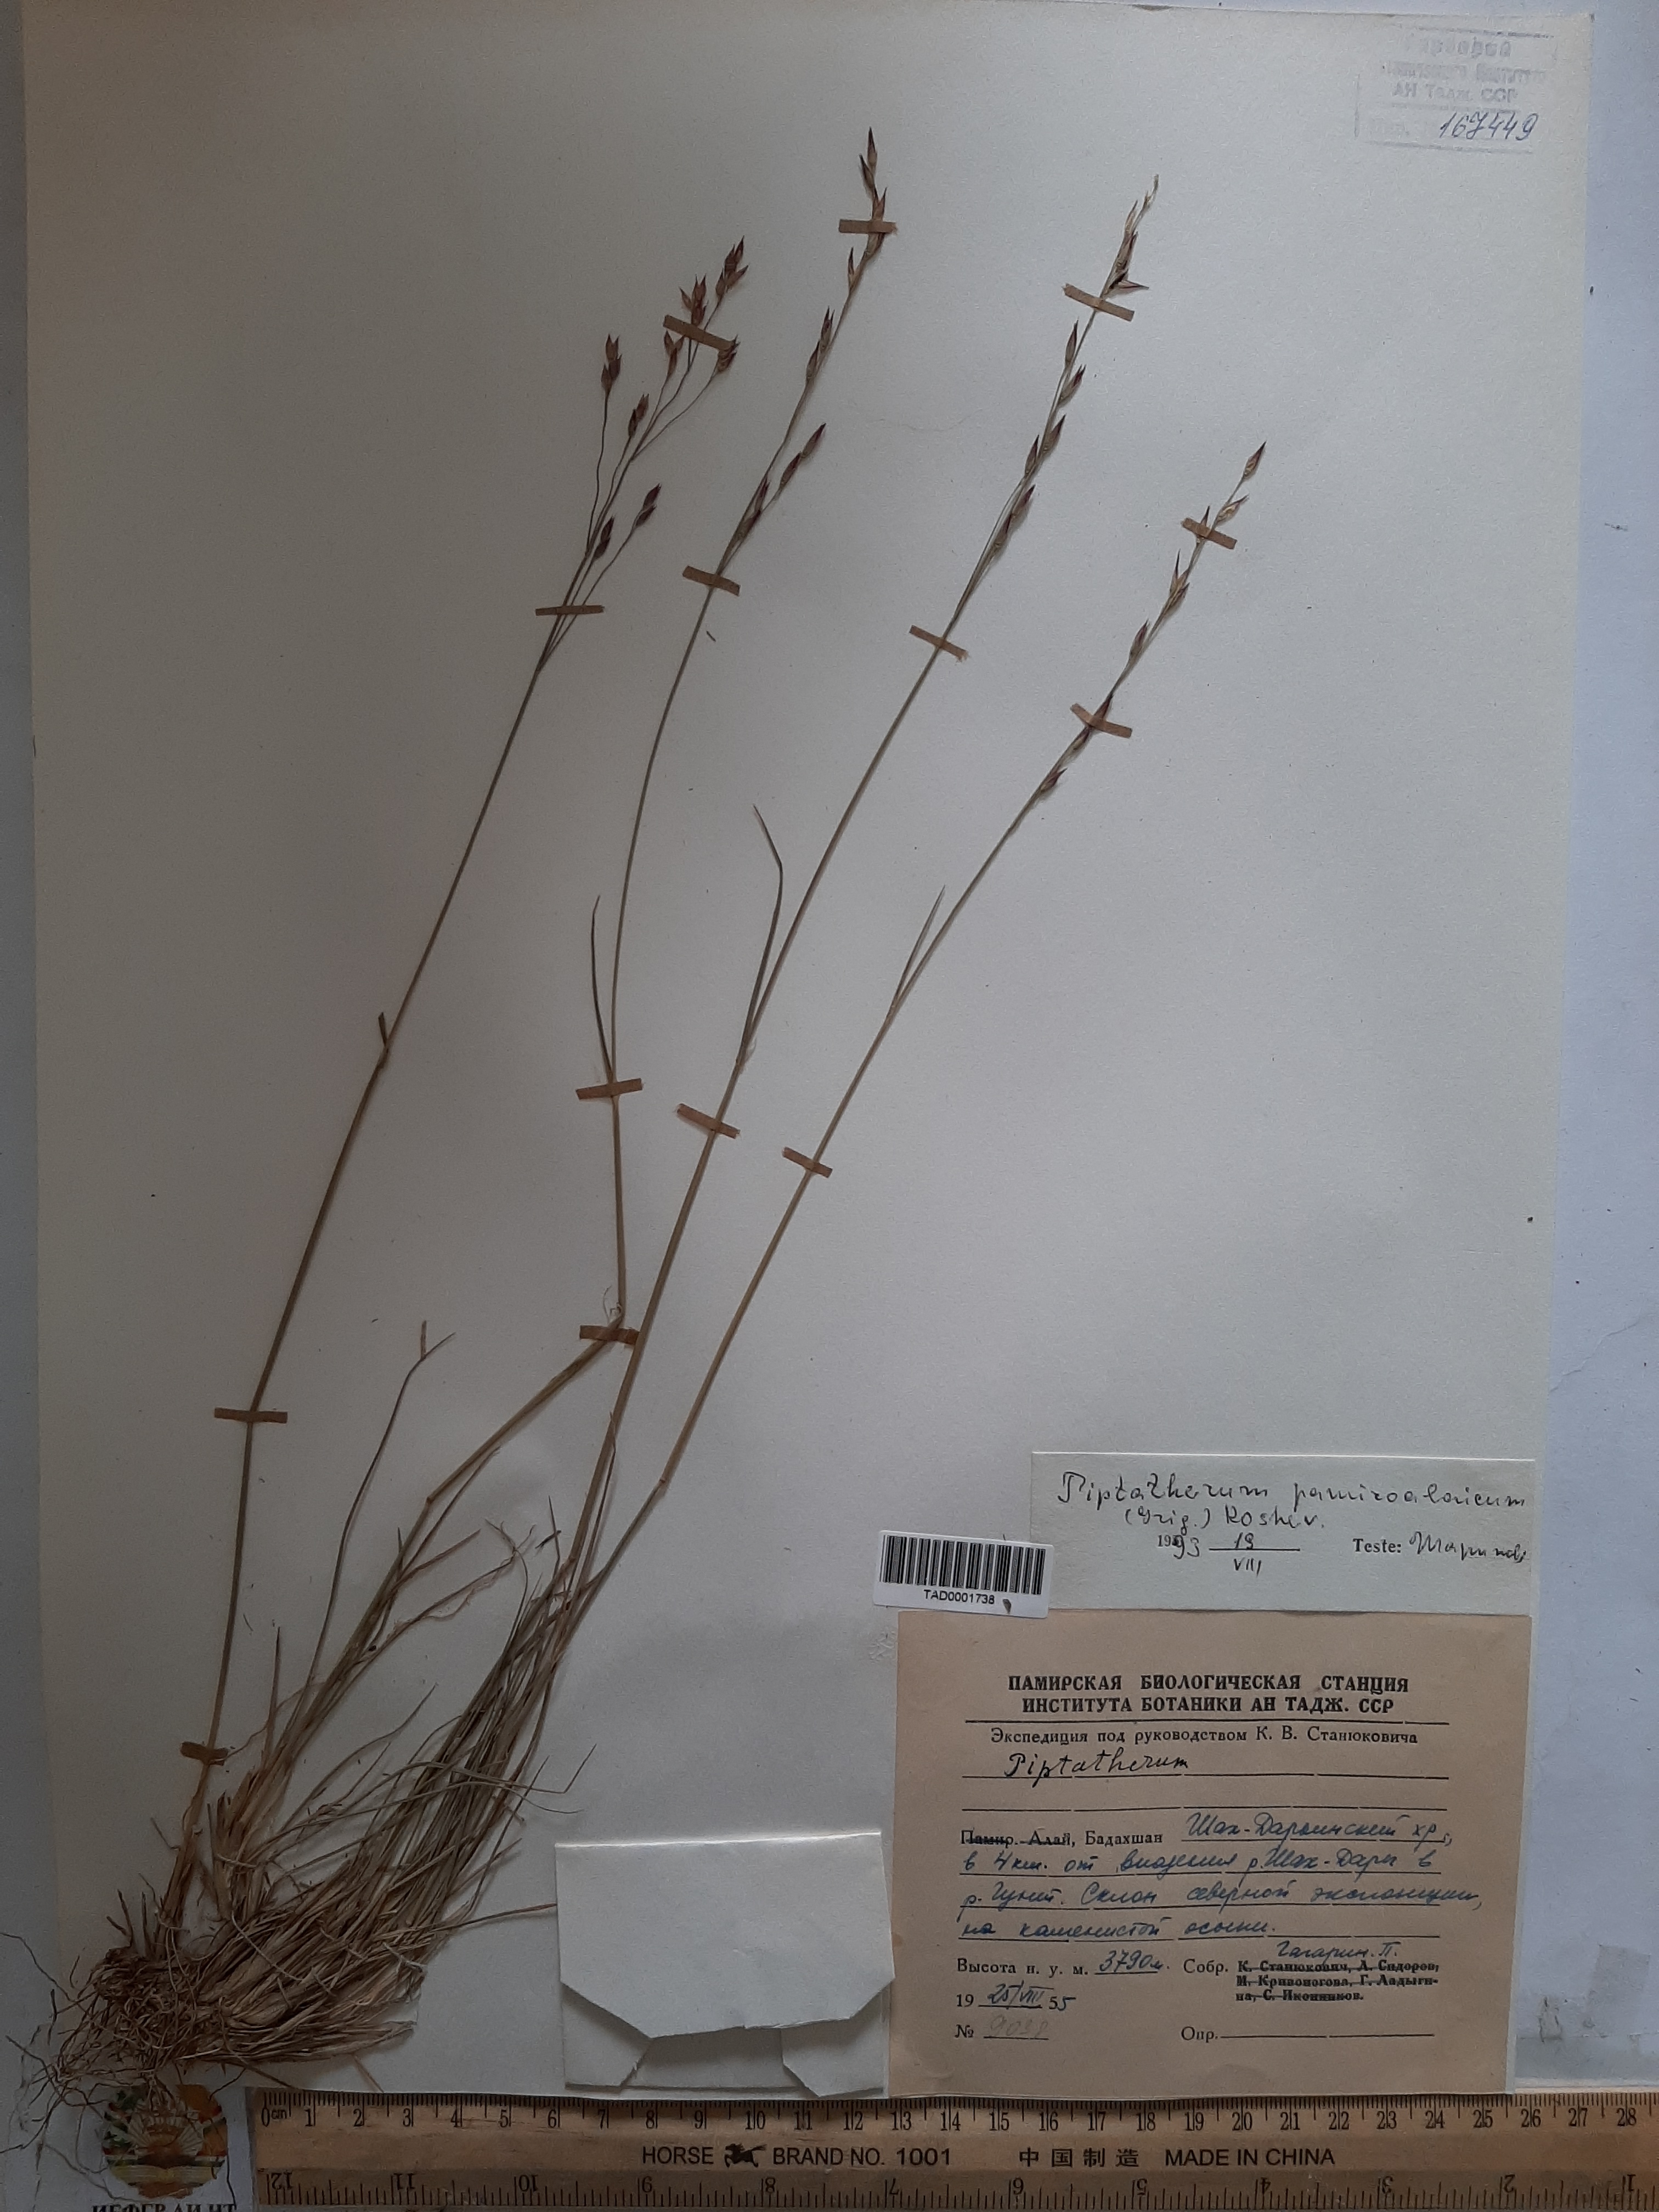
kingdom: Plantae
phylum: Tracheophyta
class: Liliopsida
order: Poales
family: Poaceae
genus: Piptatherum
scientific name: Piptatherum pamiralaicum
